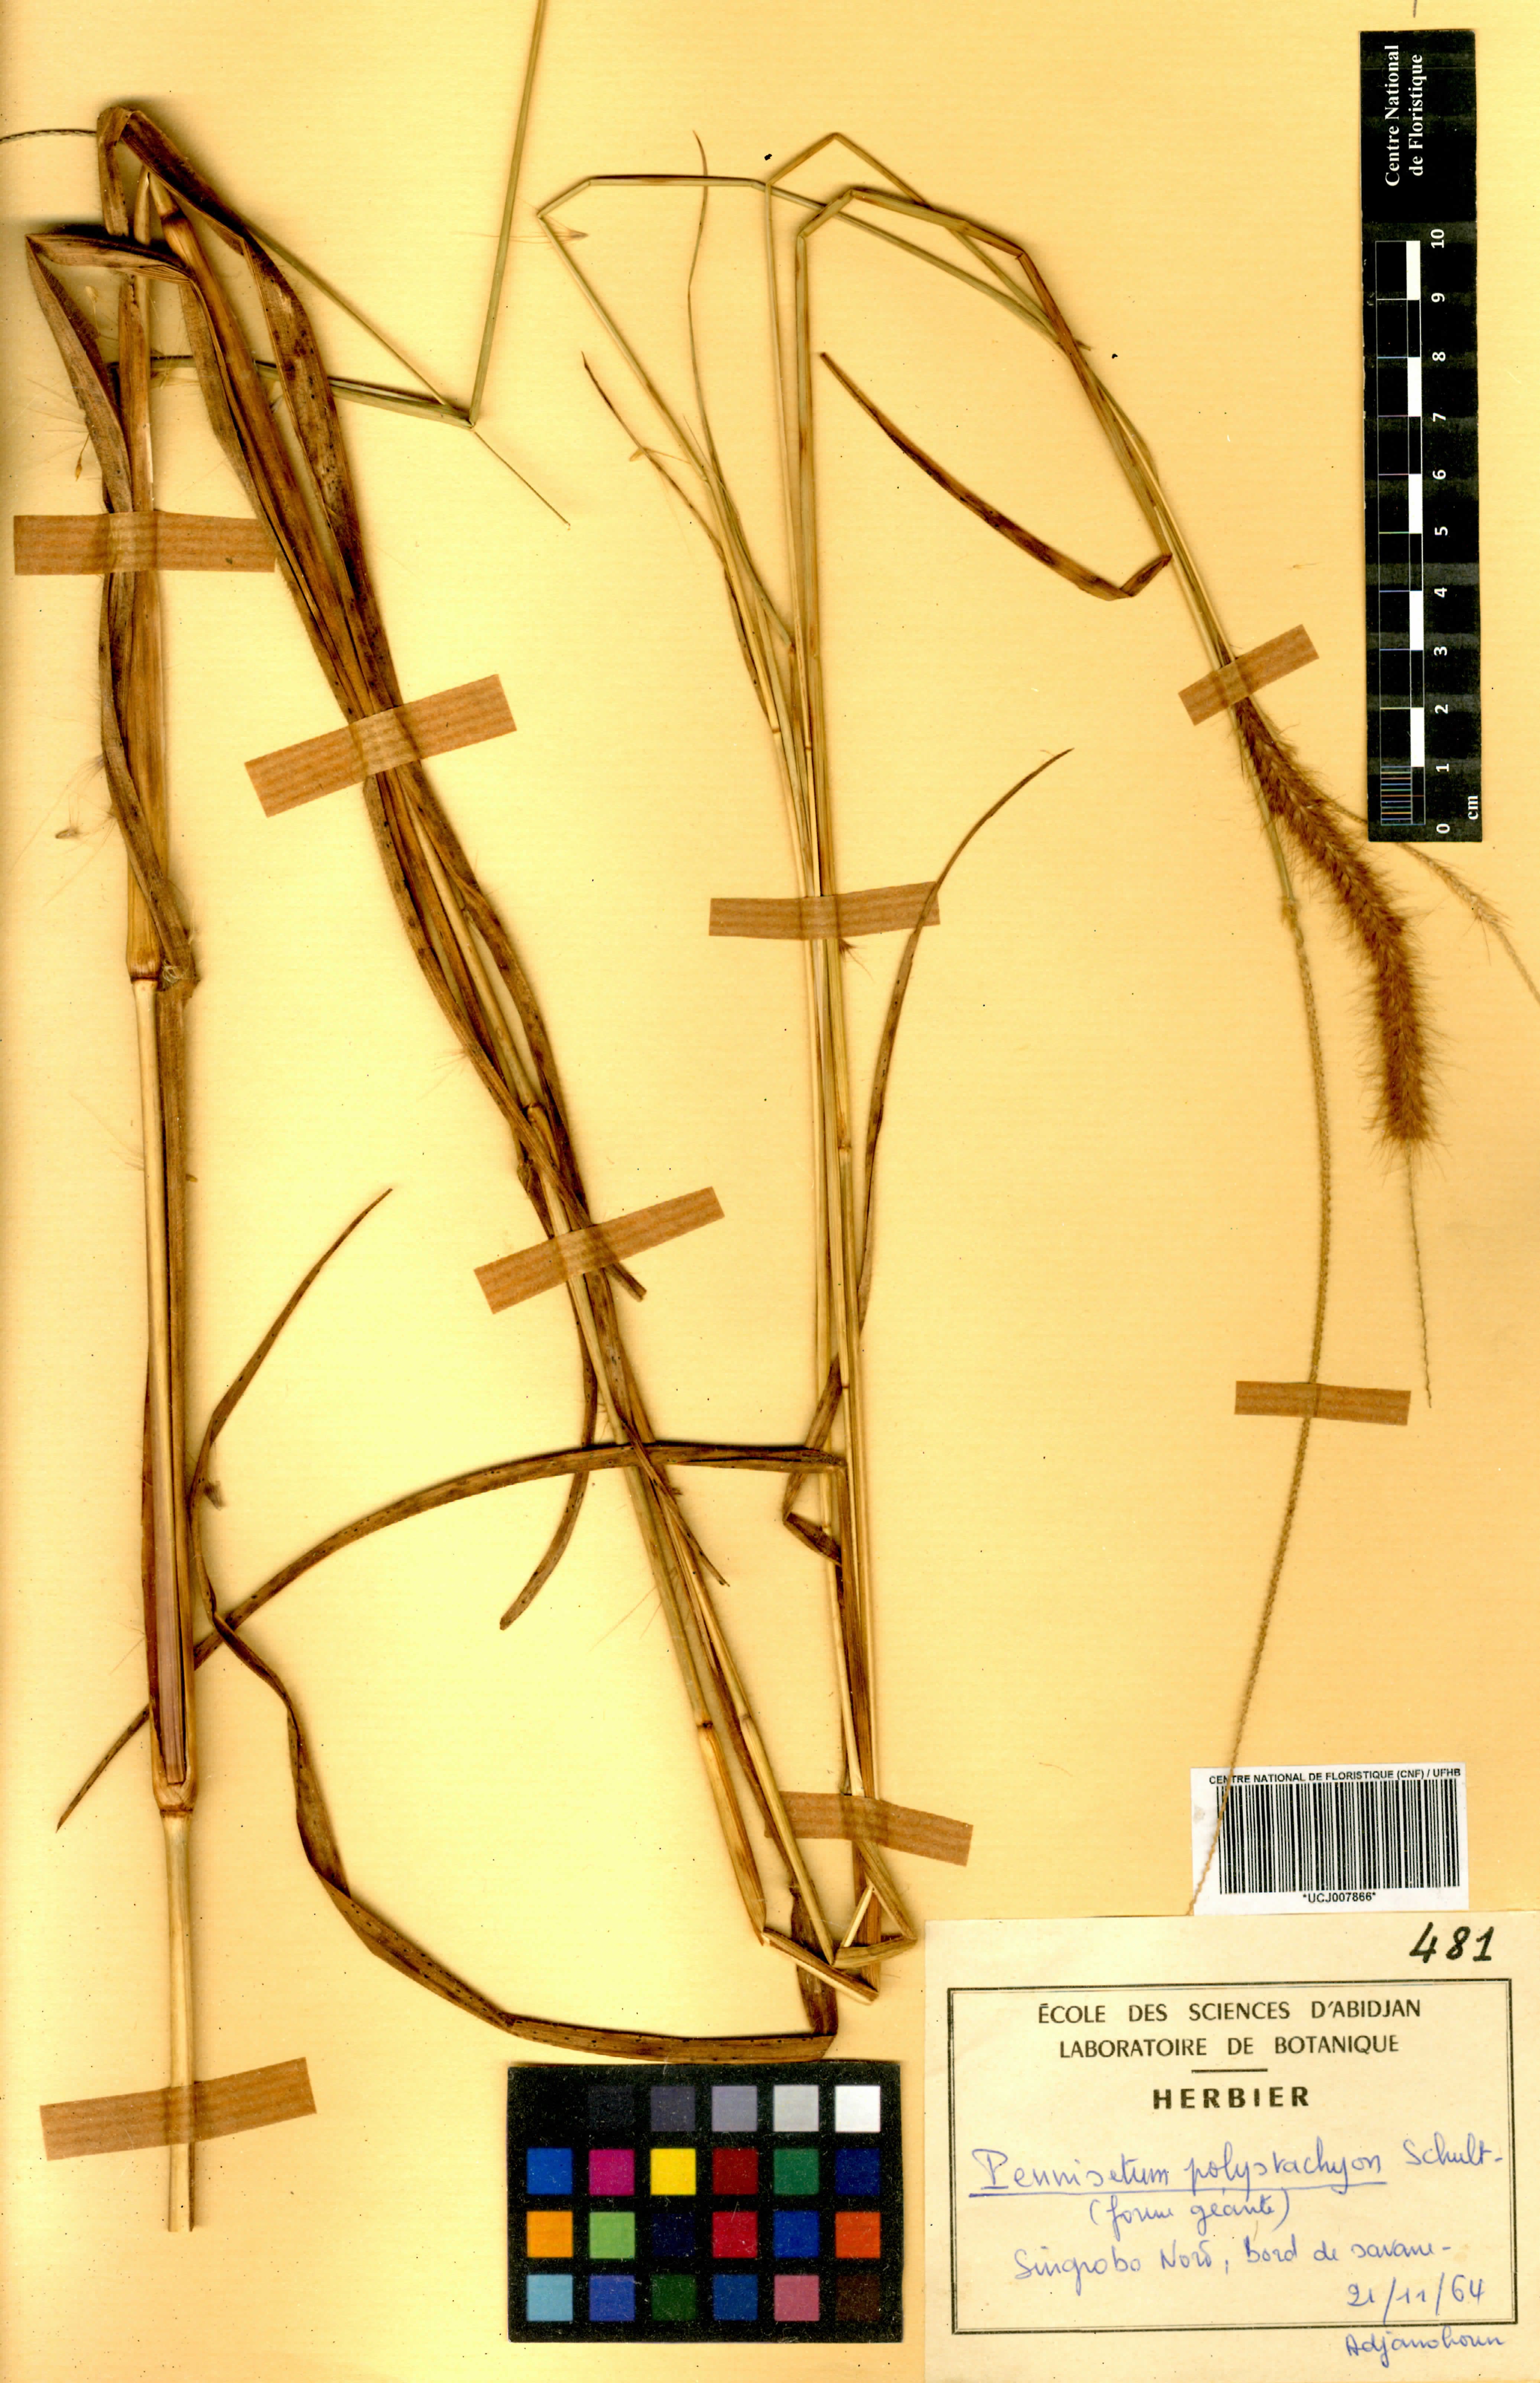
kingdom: Plantae
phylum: Tracheophyta
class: Liliopsida
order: Poales
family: Poaceae
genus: Setaria
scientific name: Setaria parviflora
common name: Knotroot bristle-grass
